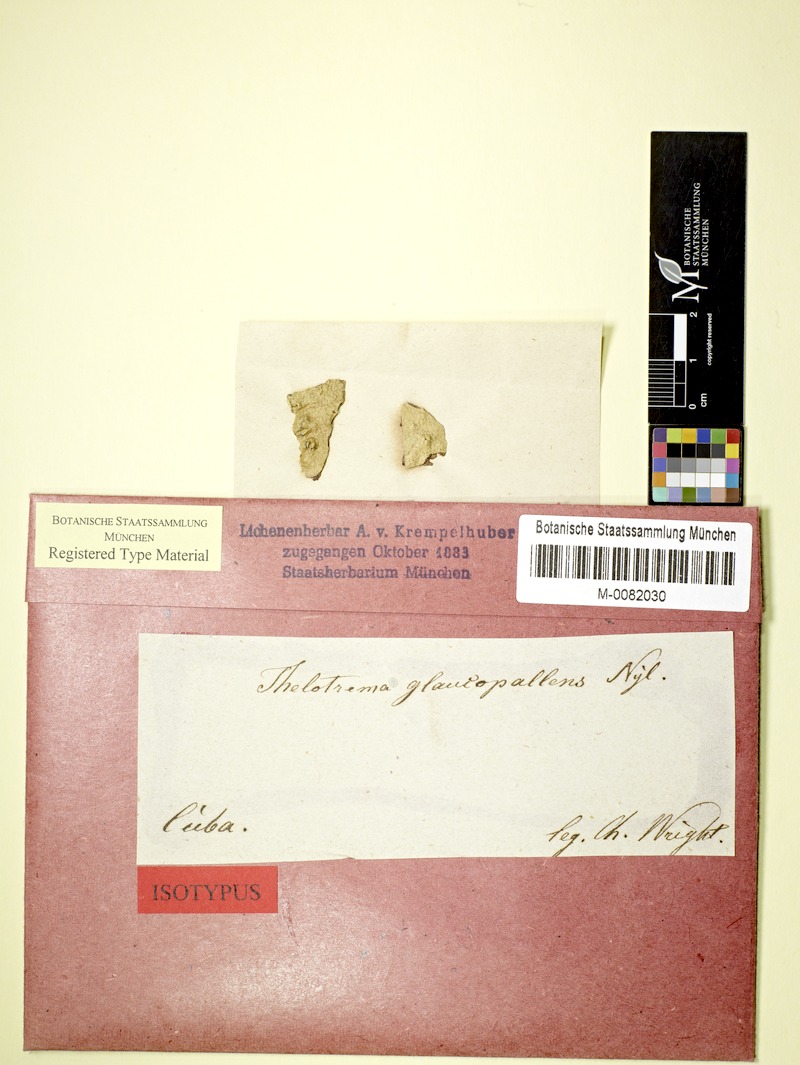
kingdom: Fungi
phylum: Ascomycota
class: Lecanoromycetes
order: Ostropales
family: Graphidaceae
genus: Wirthiotrema
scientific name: Wirthiotrema glaucopallens
